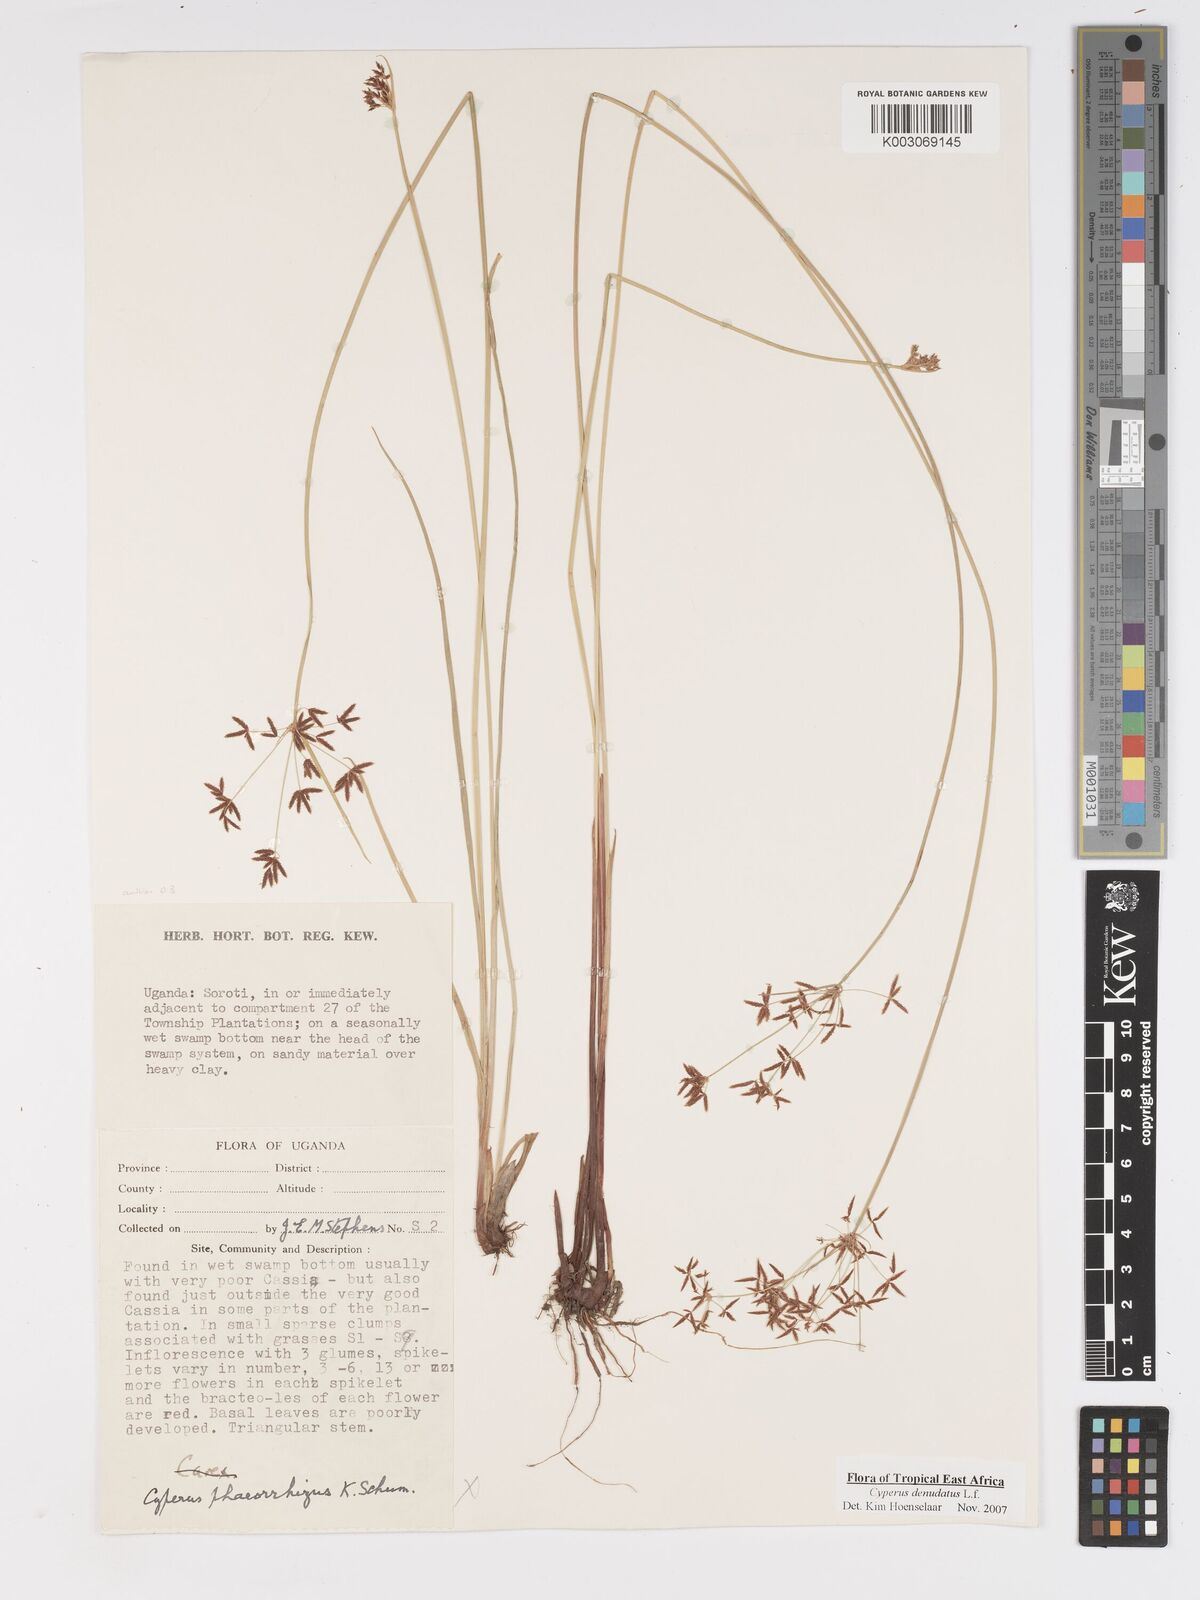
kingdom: Plantae
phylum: Tracheophyta
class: Liliopsida
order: Poales
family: Cyperaceae
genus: Cyperus
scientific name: Cyperus denudatus
